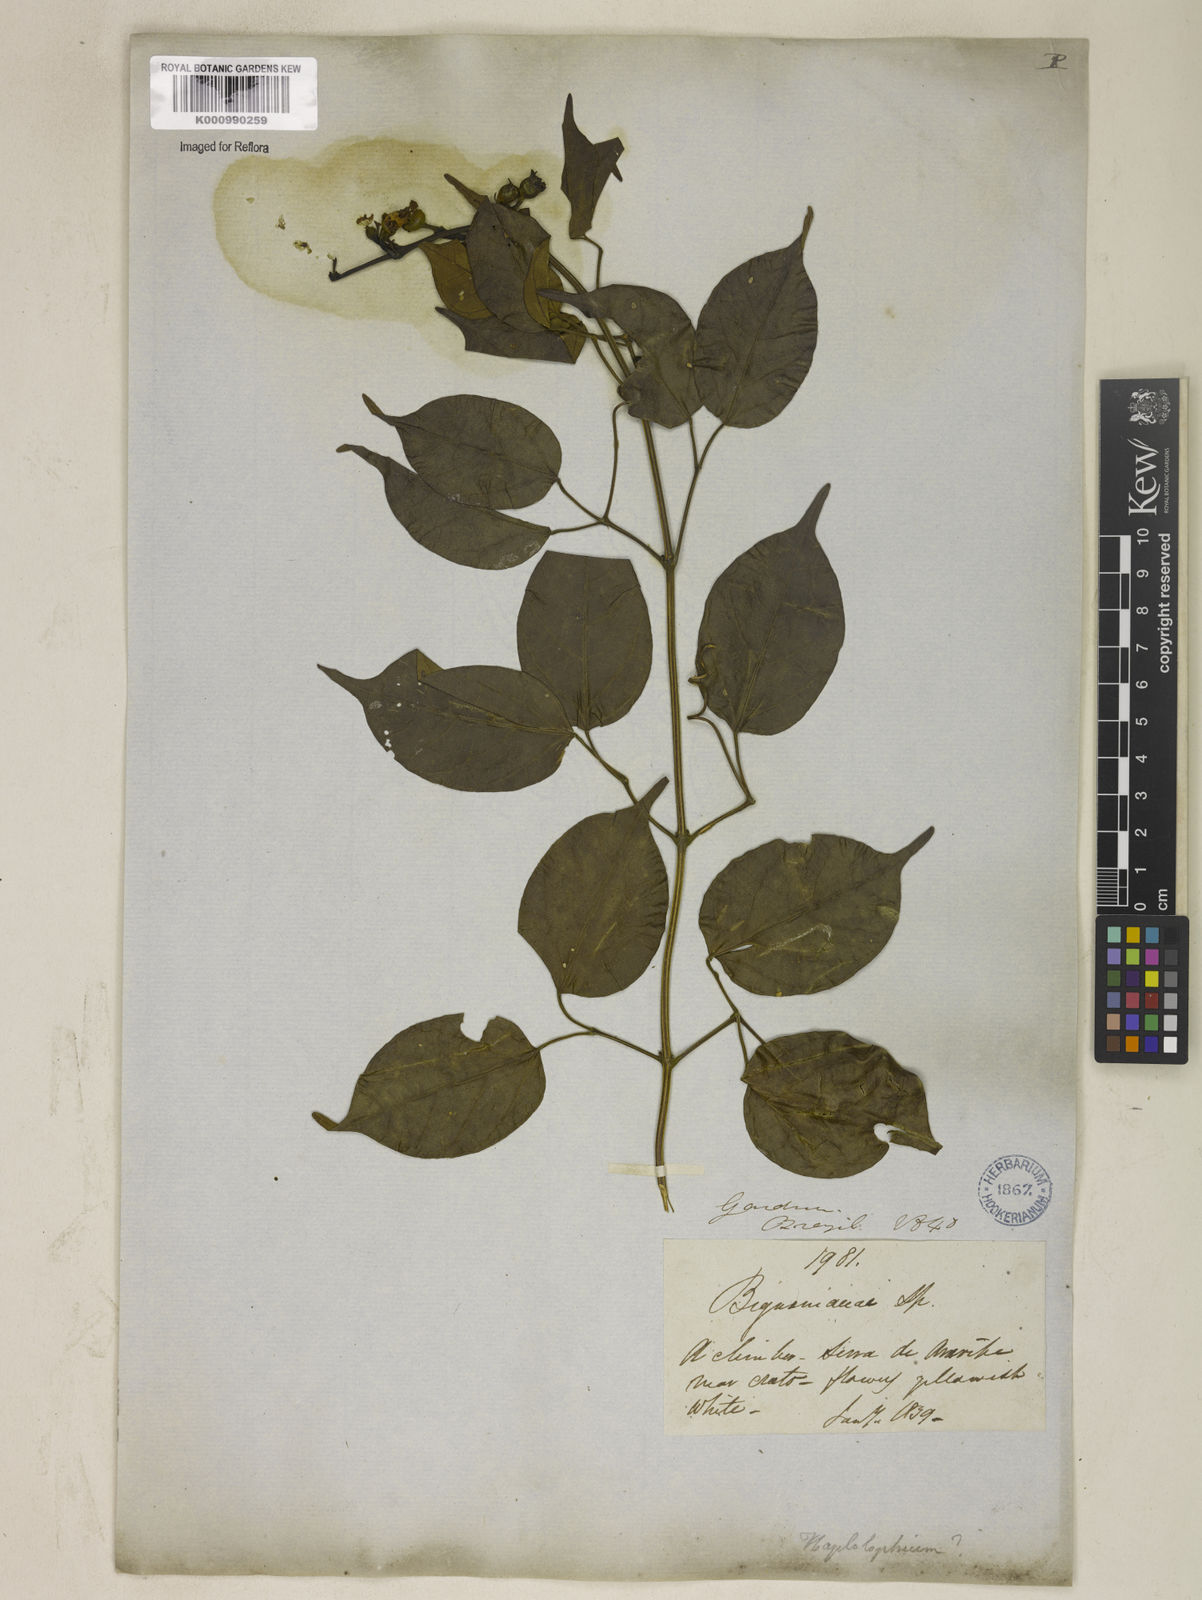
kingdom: Plantae
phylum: Tracheophyta
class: Magnoliopsida
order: Lamiales
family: Bignoniaceae
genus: Amphilophium
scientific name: Amphilophium paniculatum
